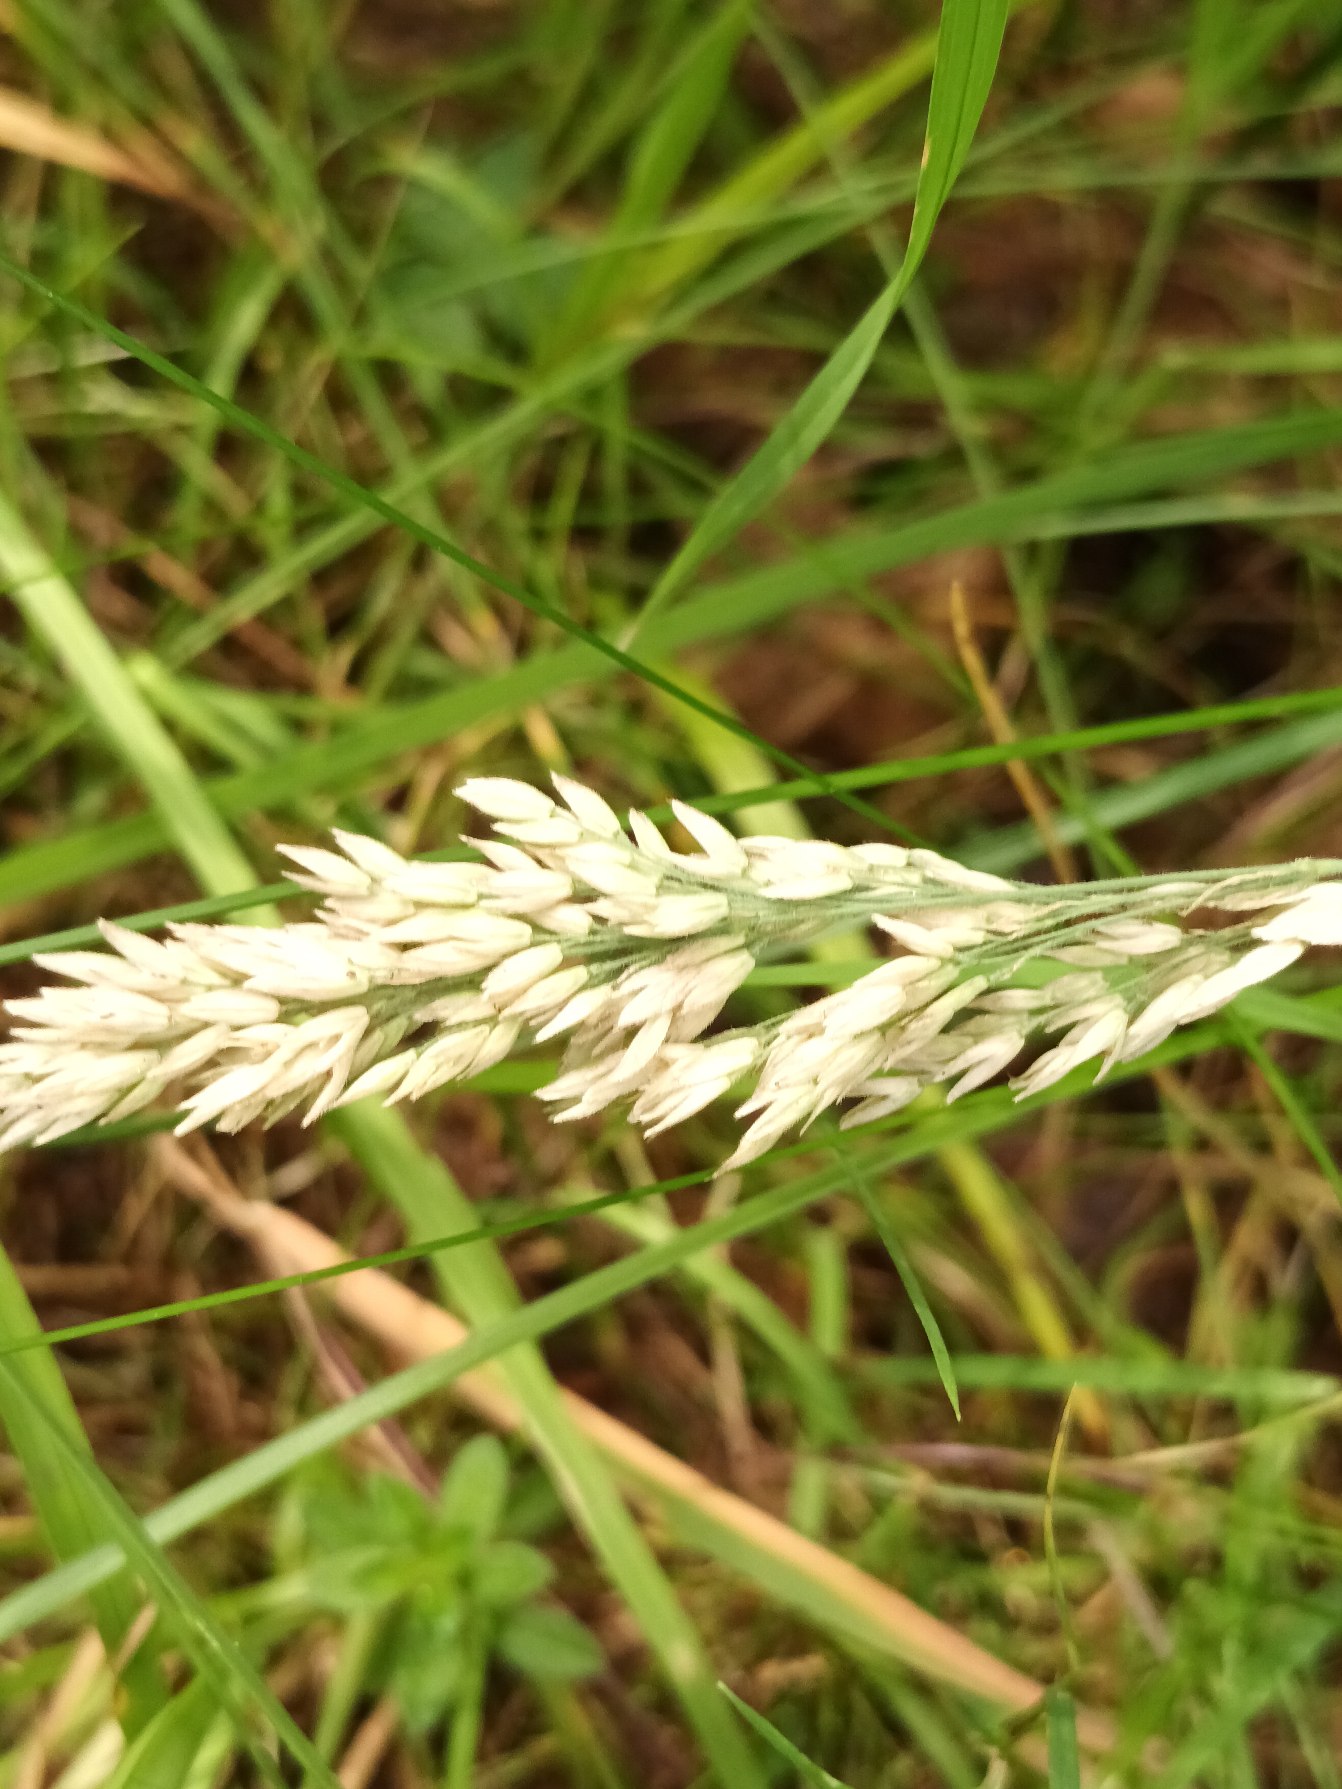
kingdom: Plantae
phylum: Tracheophyta
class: Liliopsida
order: Poales
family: Poaceae
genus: Holcus
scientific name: Holcus lanatus
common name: Fløjlsgræs
